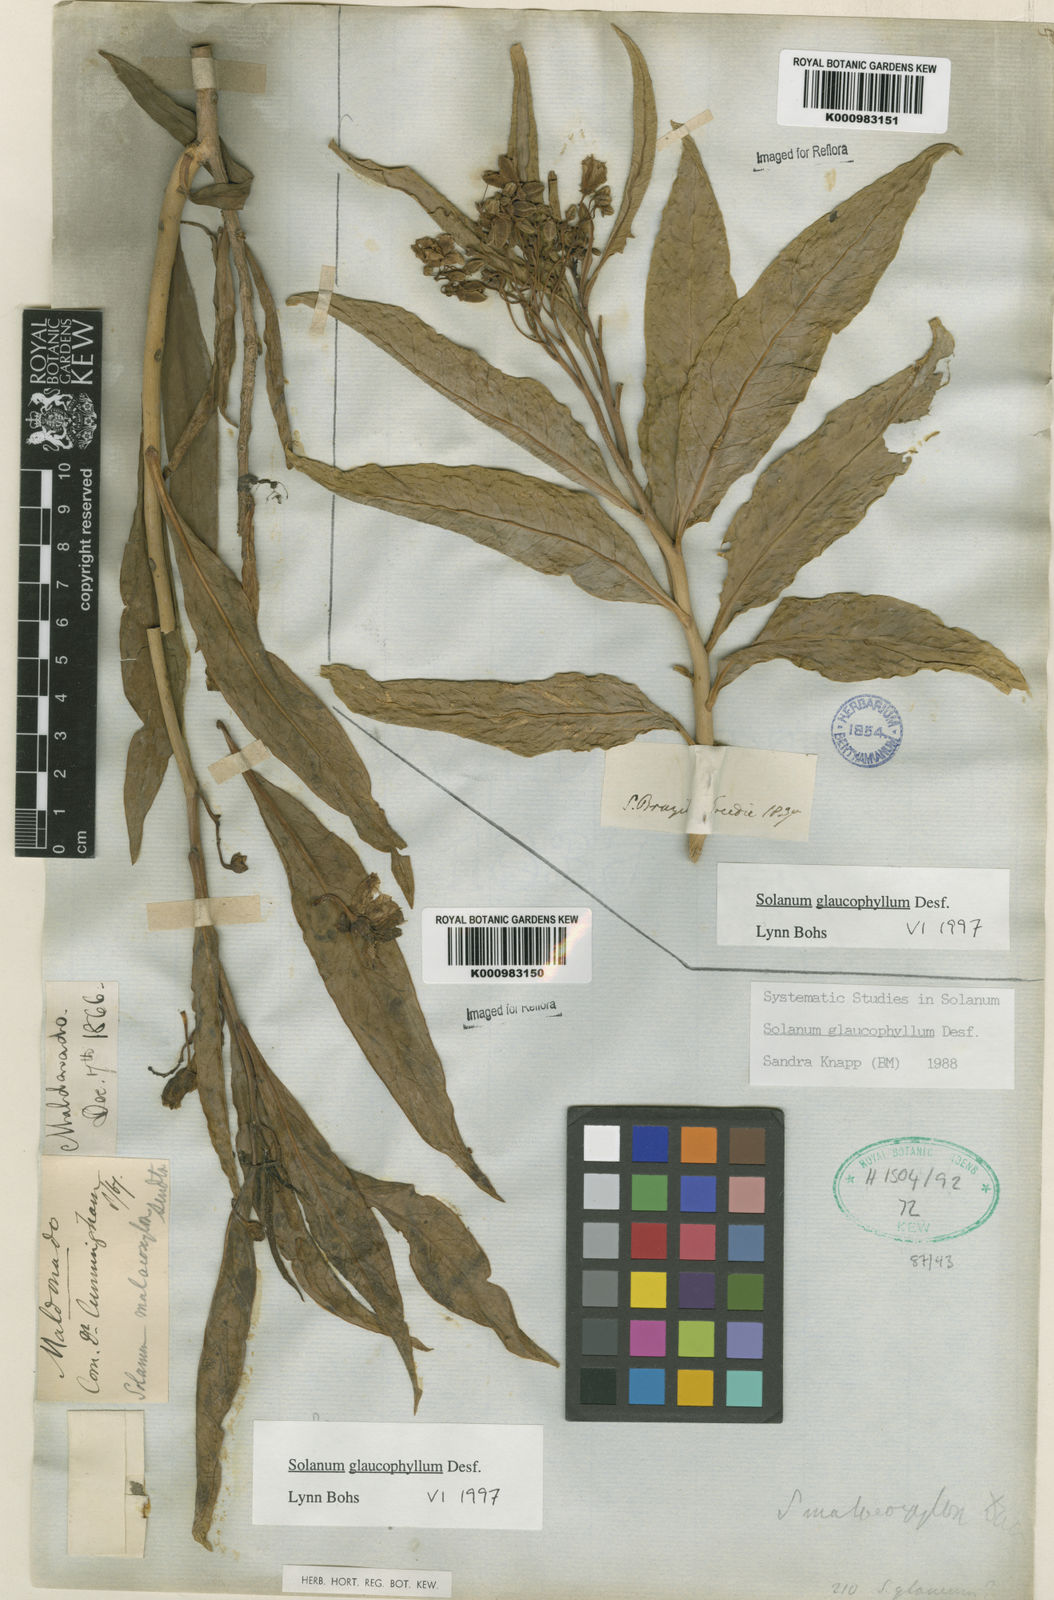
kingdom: Plantae
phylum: Tracheophyta
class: Magnoliopsida
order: Solanales
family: Solanaceae
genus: Solanum
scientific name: Solanum glaucophyllum
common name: Waxyleaf nightshade
